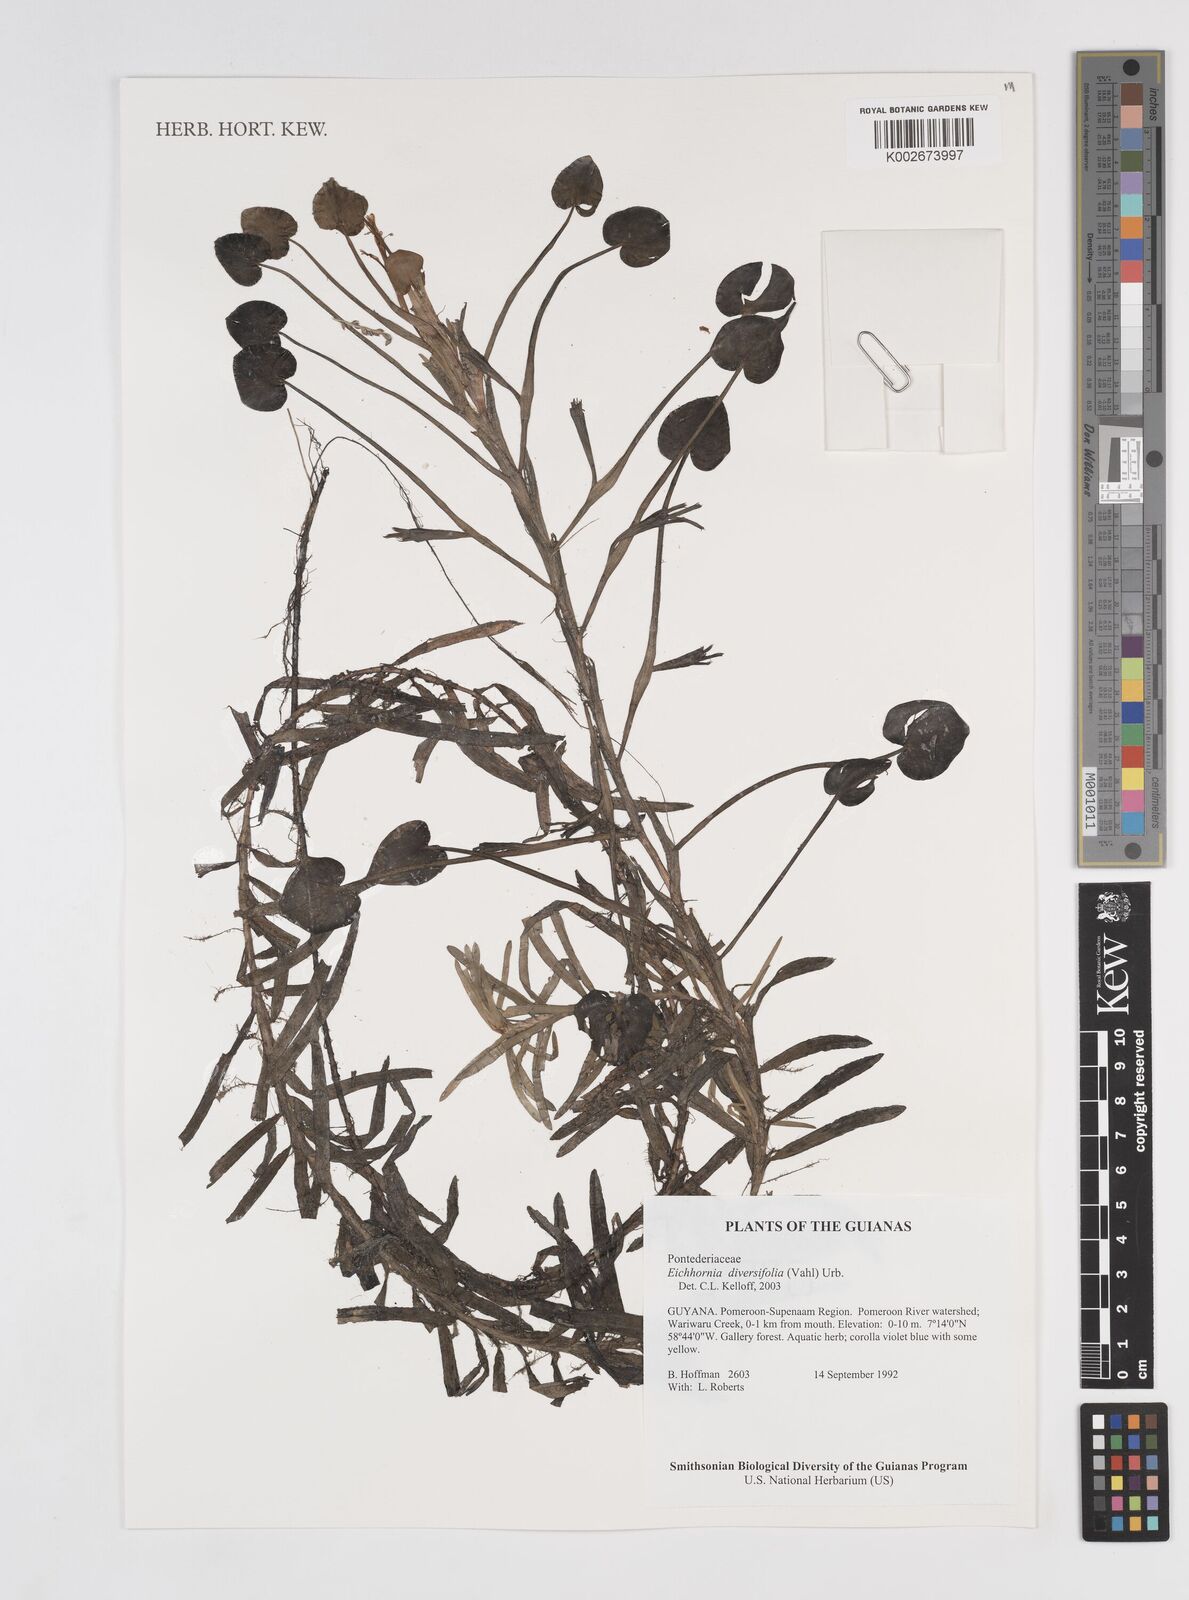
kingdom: Plantae
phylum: Tracheophyta
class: Liliopsida
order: Commelinales
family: Pontederiaceae
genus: Pontederia
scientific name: Pontederia diversifolia
